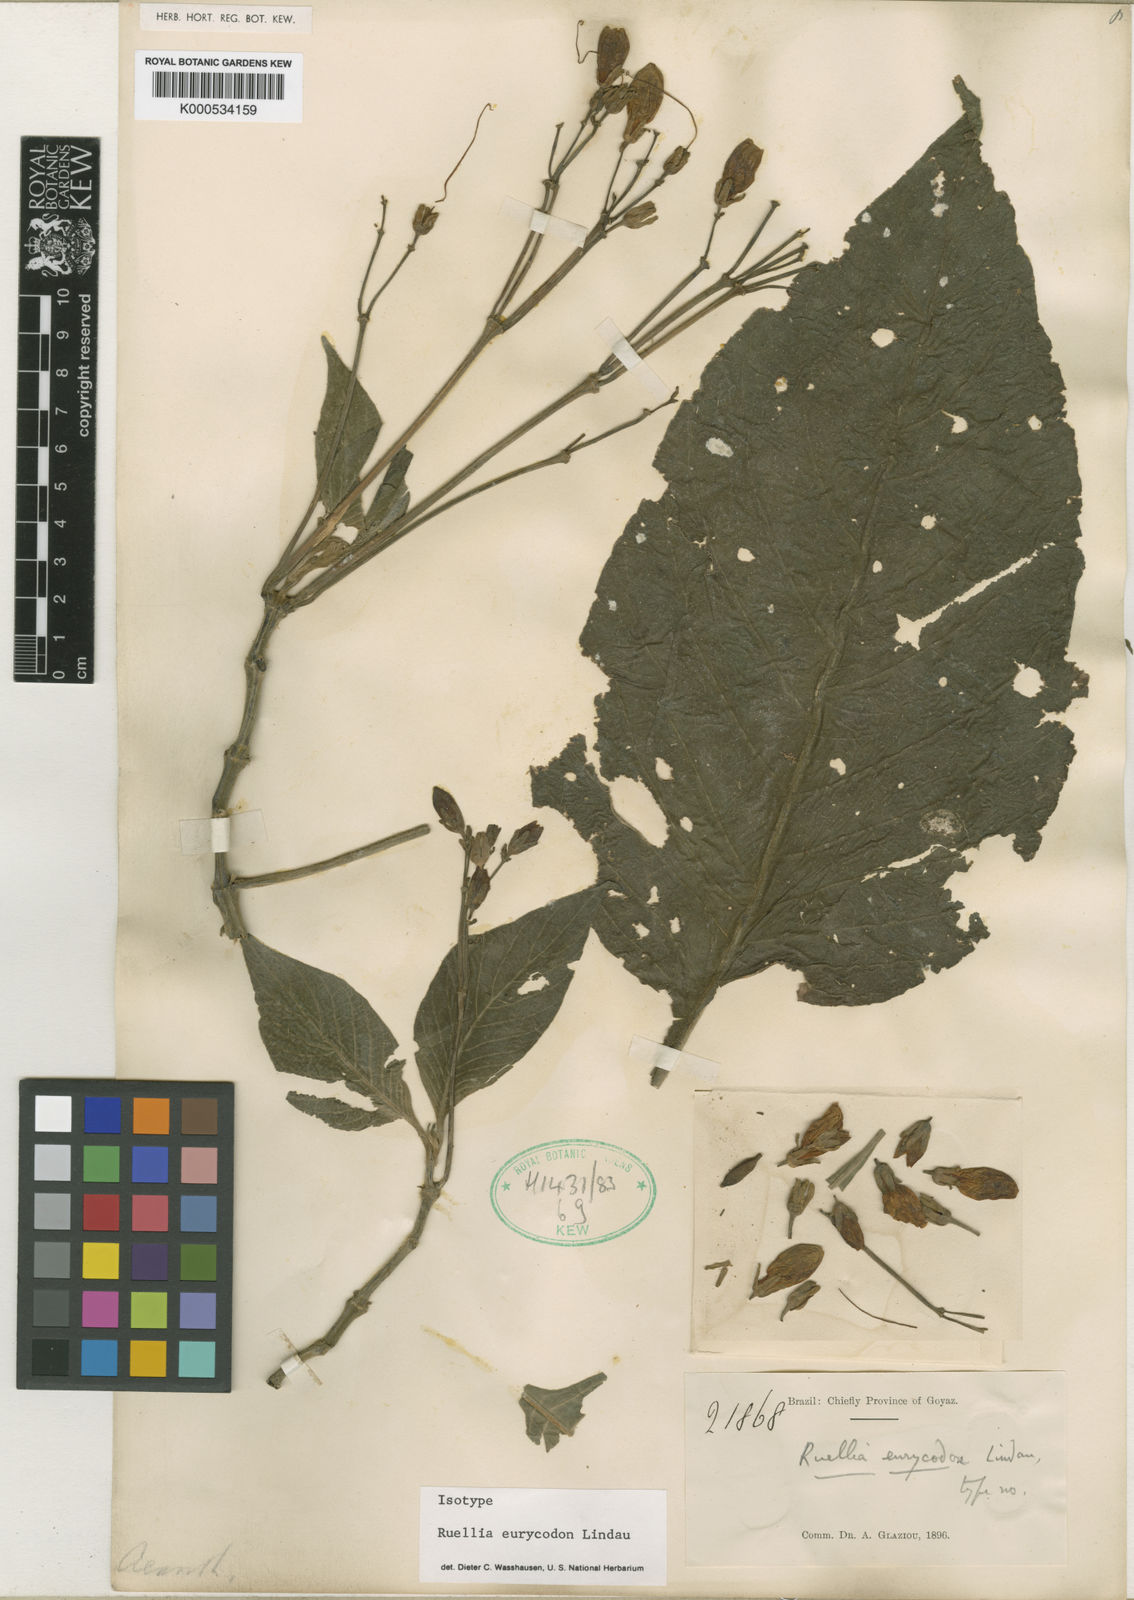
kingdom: Plantae
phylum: Tracheophyta
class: Magnoliopsida
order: Lamiales
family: Acanthaceae
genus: Ruellia
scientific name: Ruellia eurycodon
